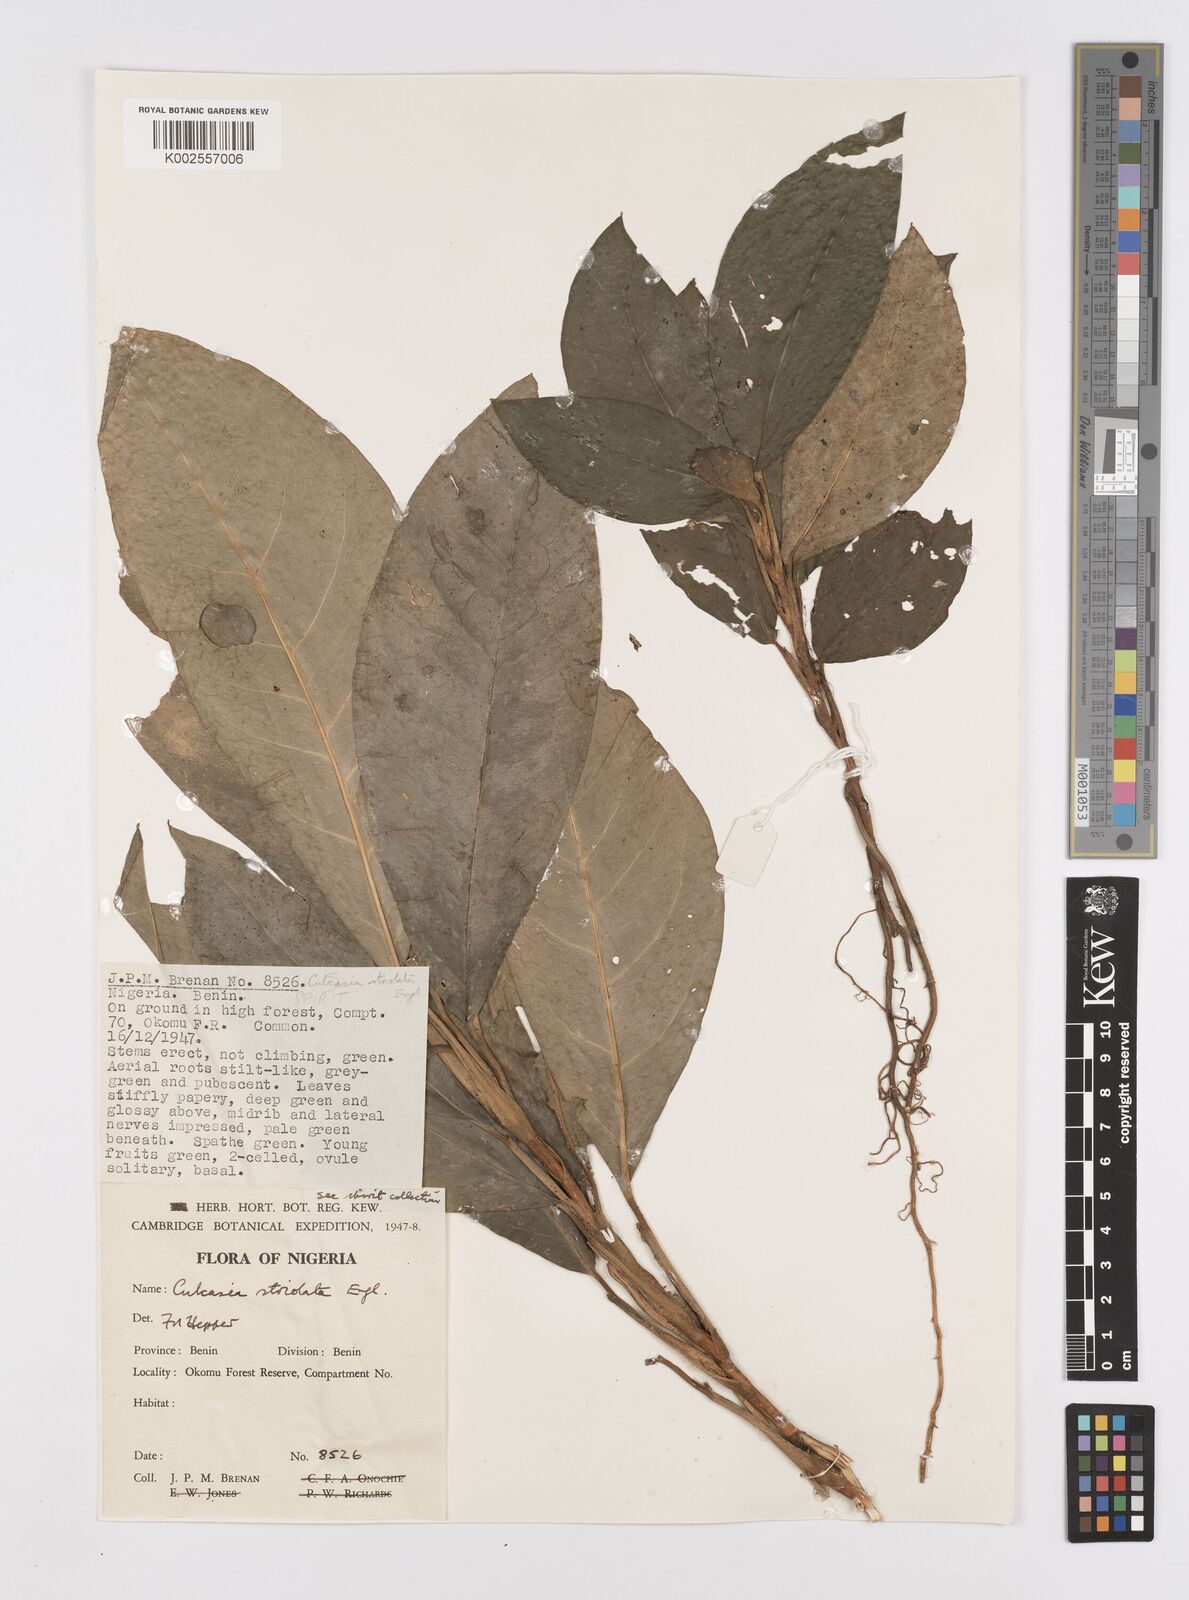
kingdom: Plantae
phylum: Tracheophyta
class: Liliopsida
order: Alismatales
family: Araceae
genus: Culcasia
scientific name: Culcasia striolata
